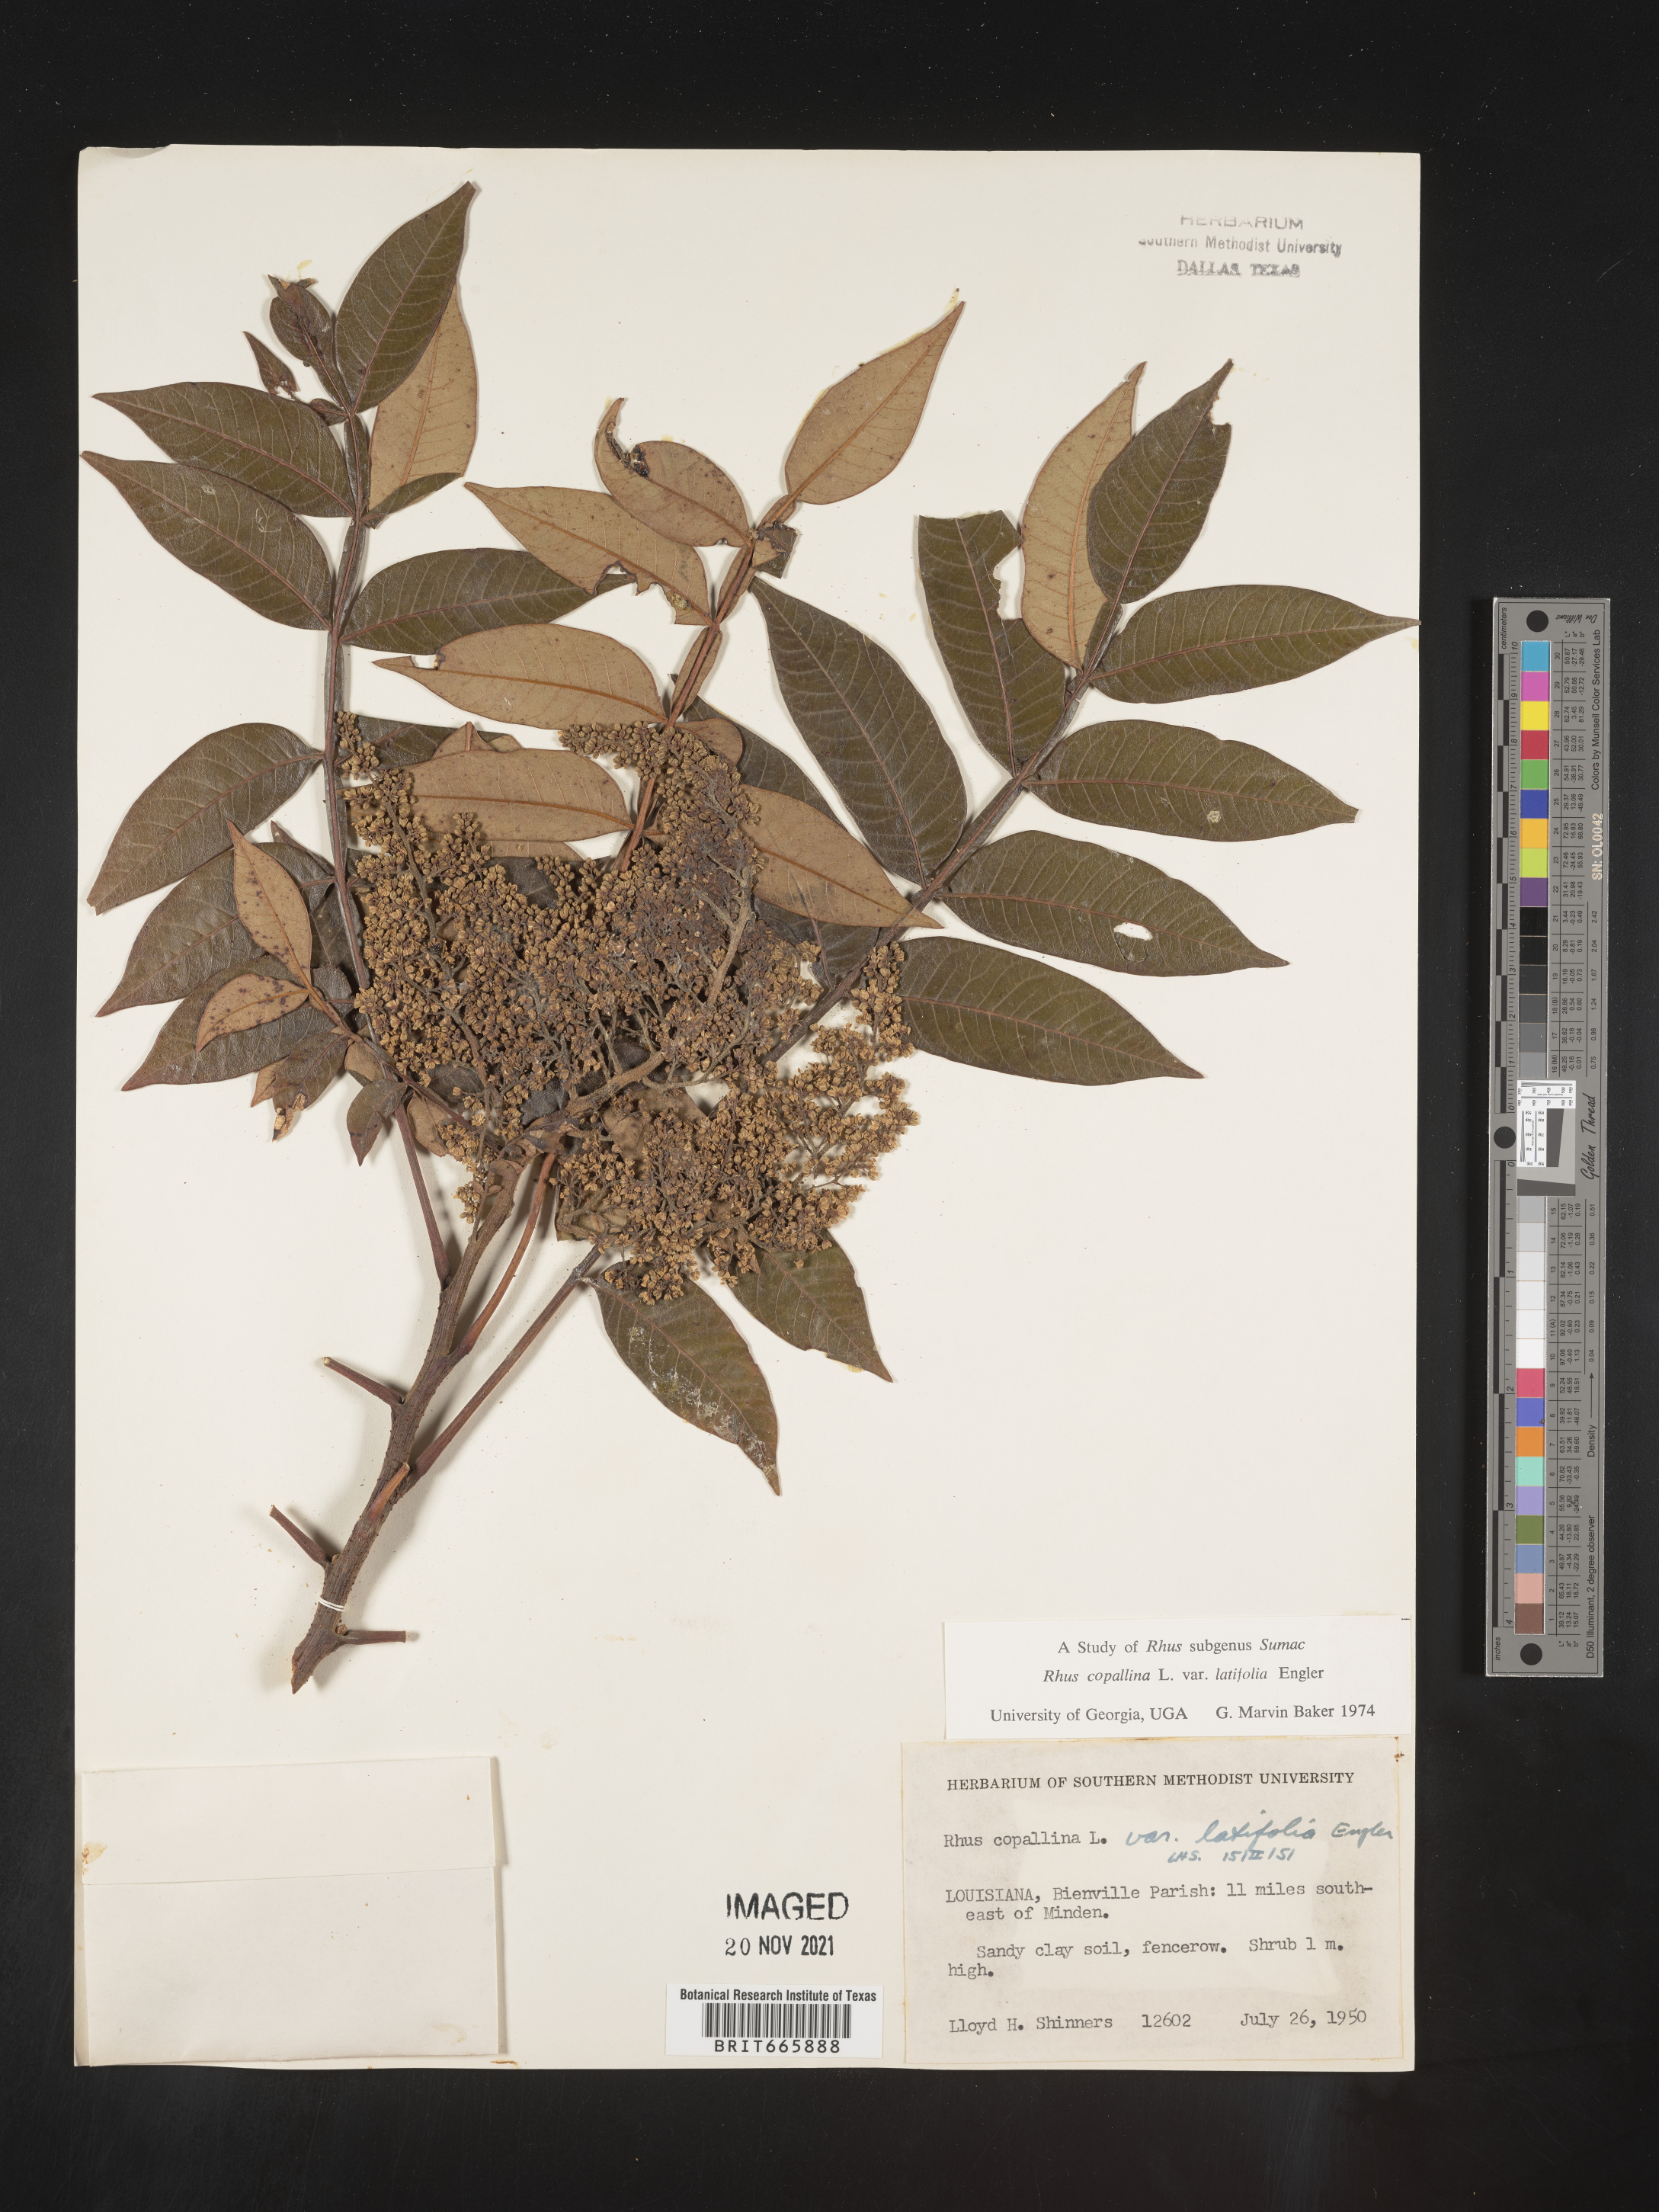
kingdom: Plantae
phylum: Tracheophyta
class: Magnoliopsida
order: Sapindales
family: Anacardiaceae
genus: Rhus
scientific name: Rhus copallina
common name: Shining sumac
